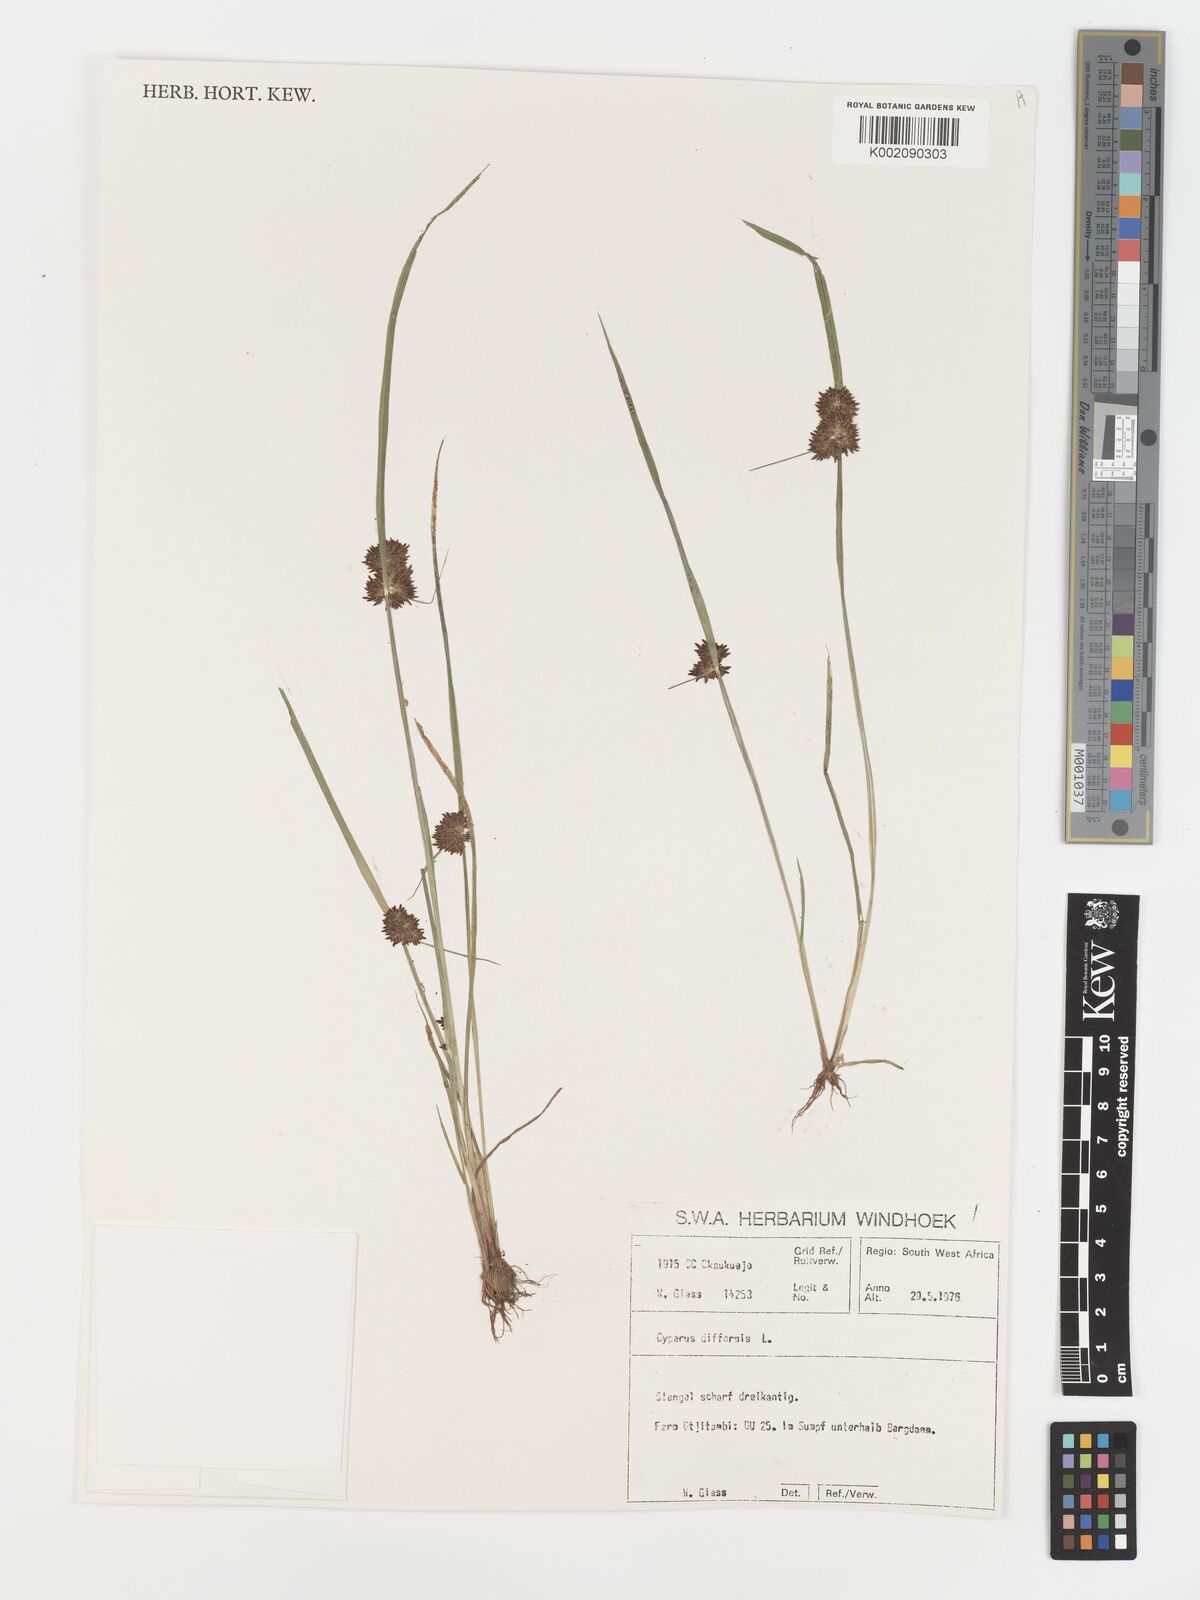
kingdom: Plantae
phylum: Tracheophyta
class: Liliopsida
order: Poales
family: Cyperaceae
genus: Cyperus
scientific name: Cyperus difformis
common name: Variable flatsedge
